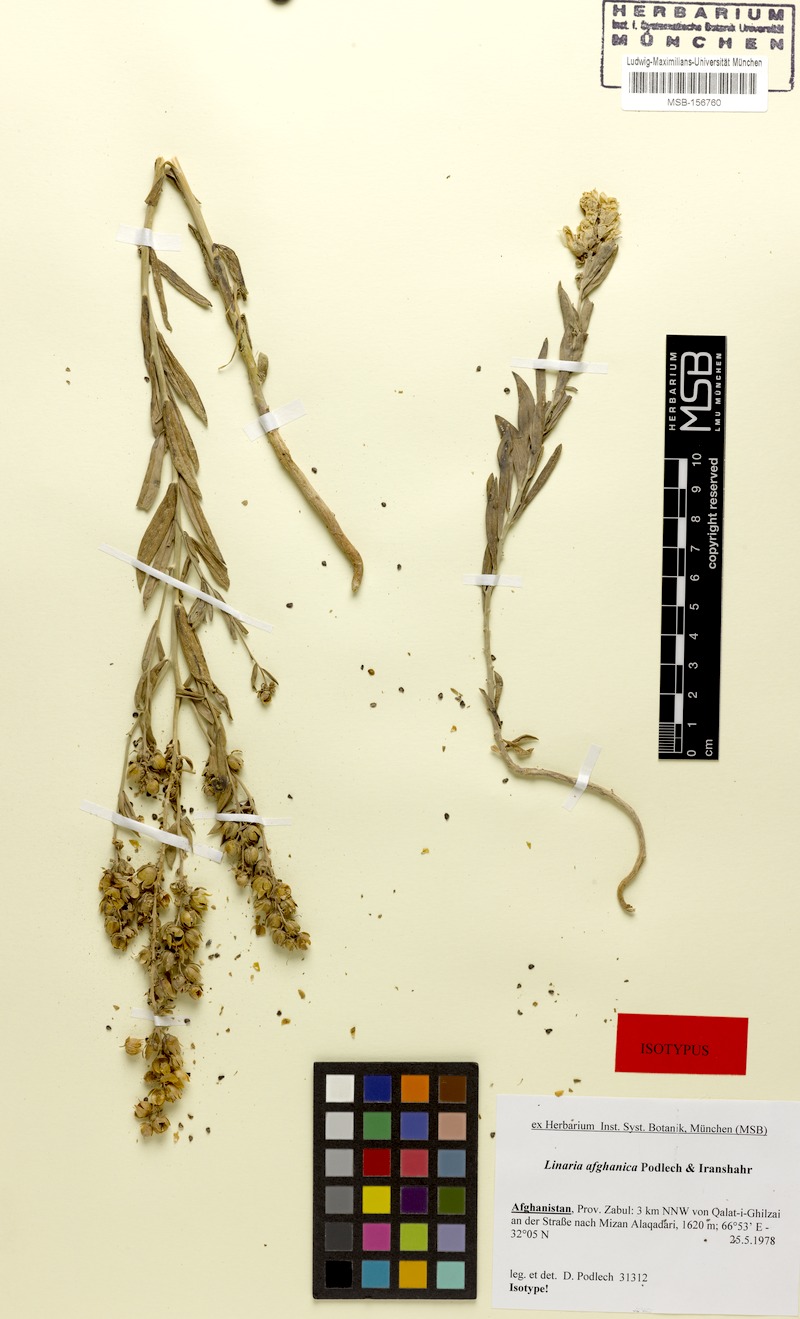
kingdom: Plantae
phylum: Tracheophyta
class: Magnoliopsida
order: Lamiales
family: Plantaginaceae
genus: Linaria
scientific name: Linaria afghanica
